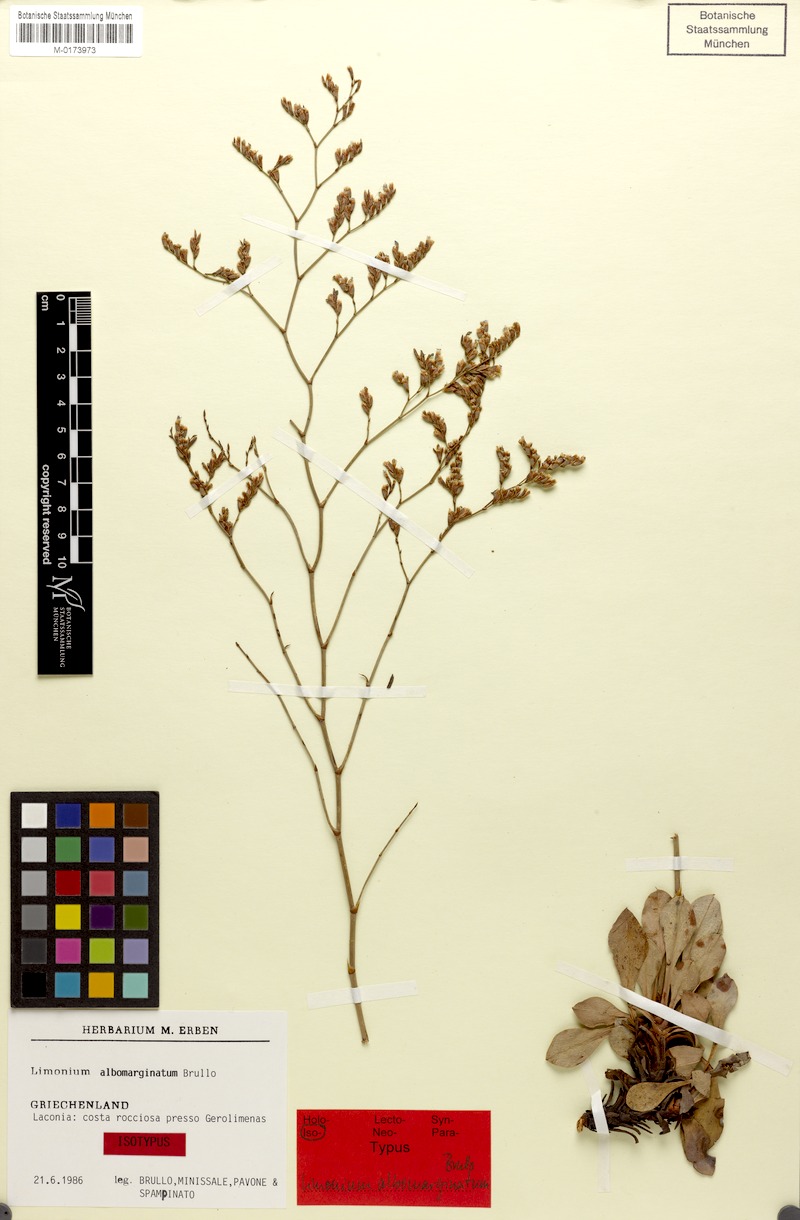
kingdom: Plantae
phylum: Tracheophyta
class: Magnoliopsida
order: Caryophyllales
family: Plumbaginaceae
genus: Limonium
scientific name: Limonium albomarginatum
